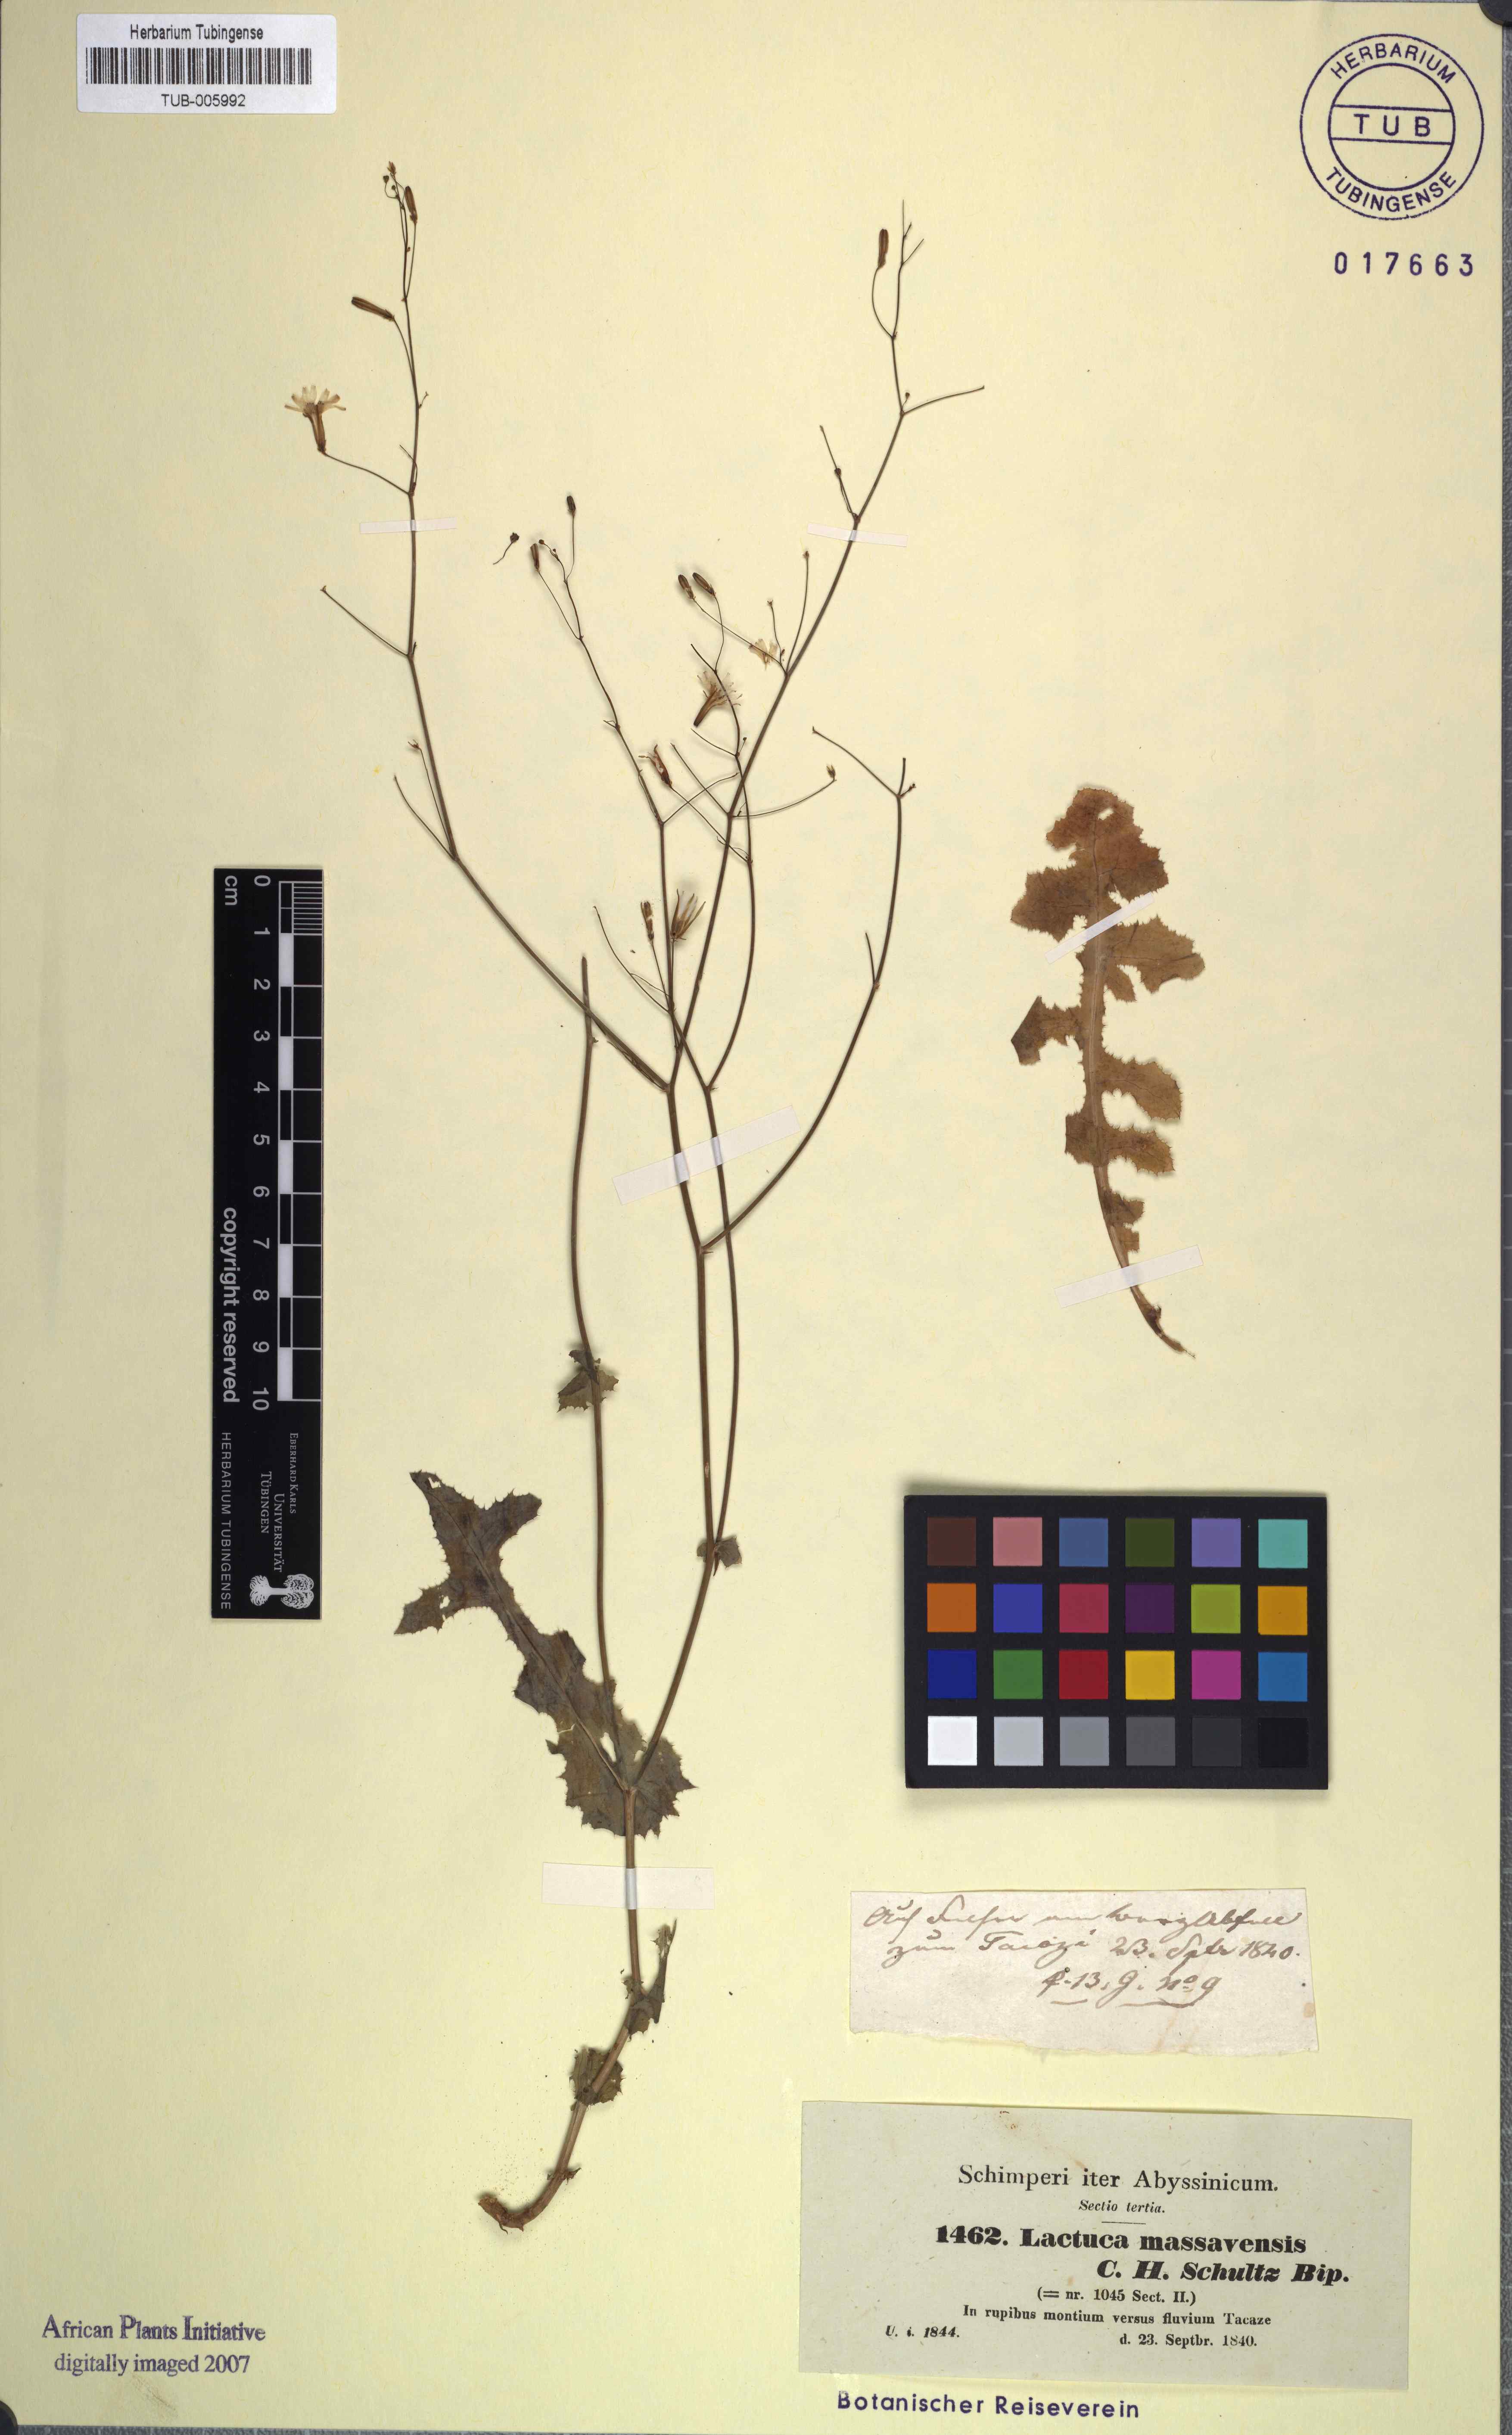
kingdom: Plantae
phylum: Tracheophyta
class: Magnoliopsida
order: Asterales
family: Asteraceae
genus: Lactuca
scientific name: Lactuca massaviensis
